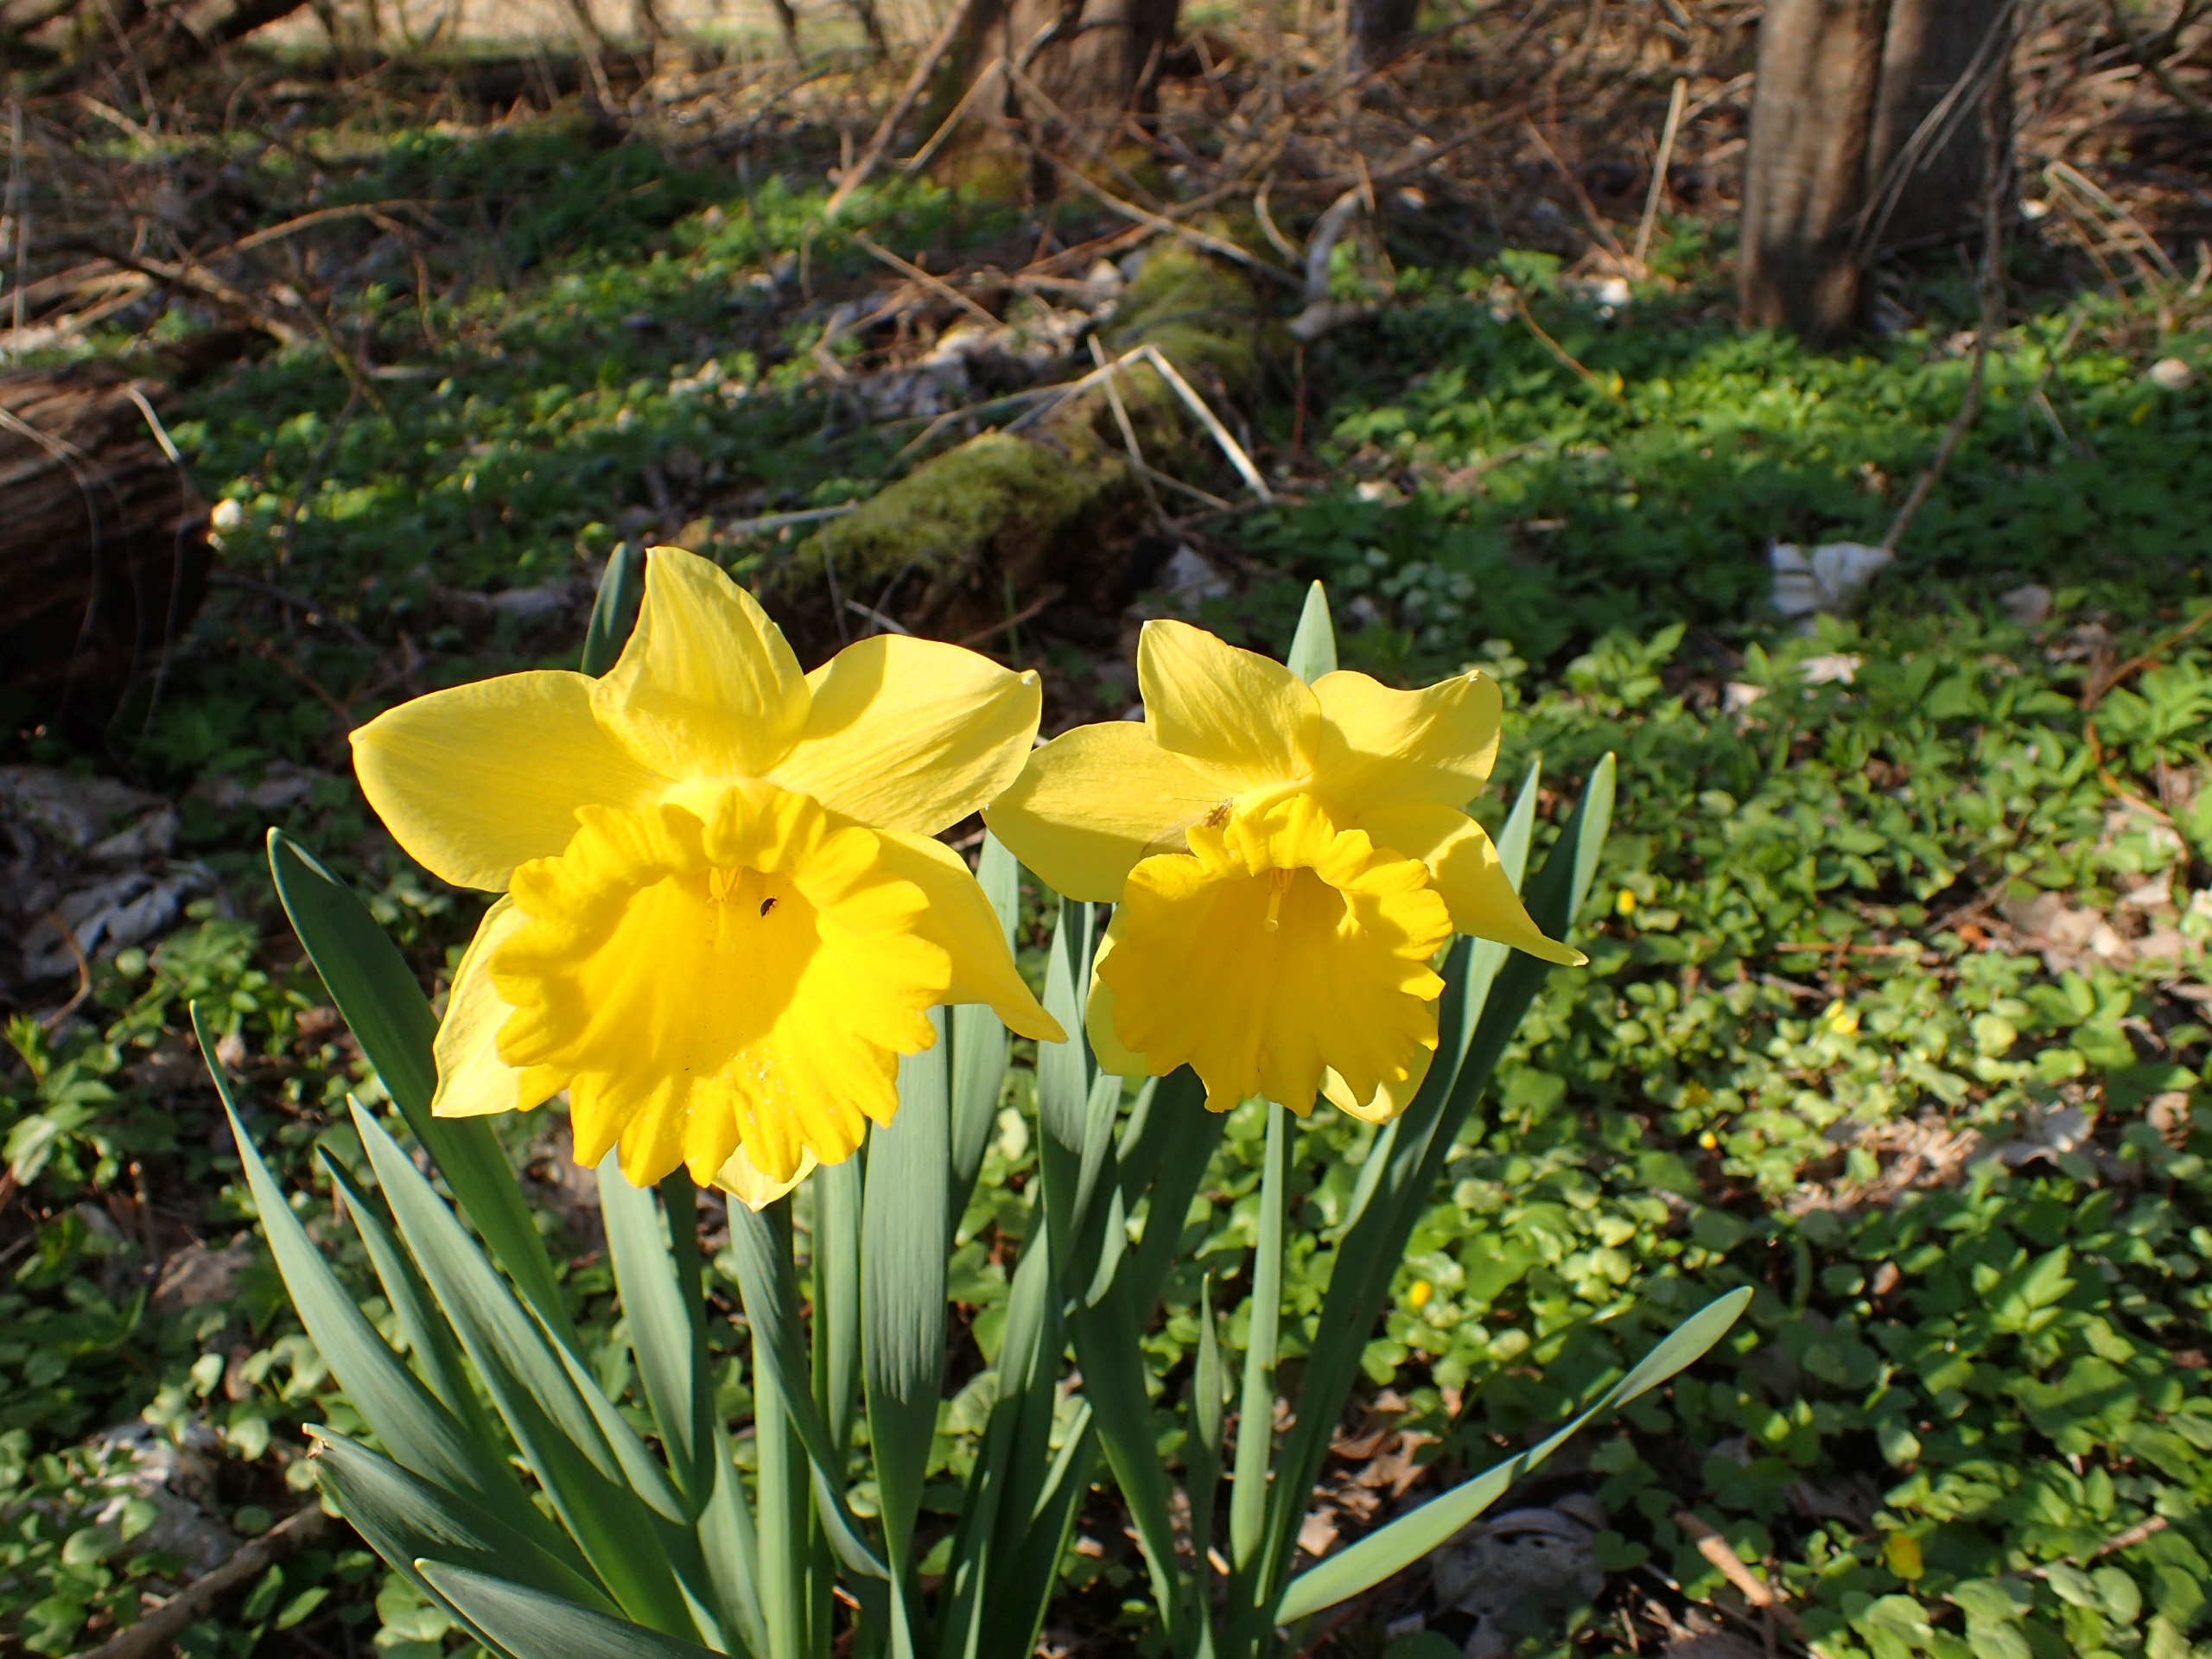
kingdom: Plantae
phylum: Tracheophyta
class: Liliopsida
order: Asparagales
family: Amaryllidaceae
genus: Narcissus
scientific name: Narcissus pseudonarcissus
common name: Påskelilje
